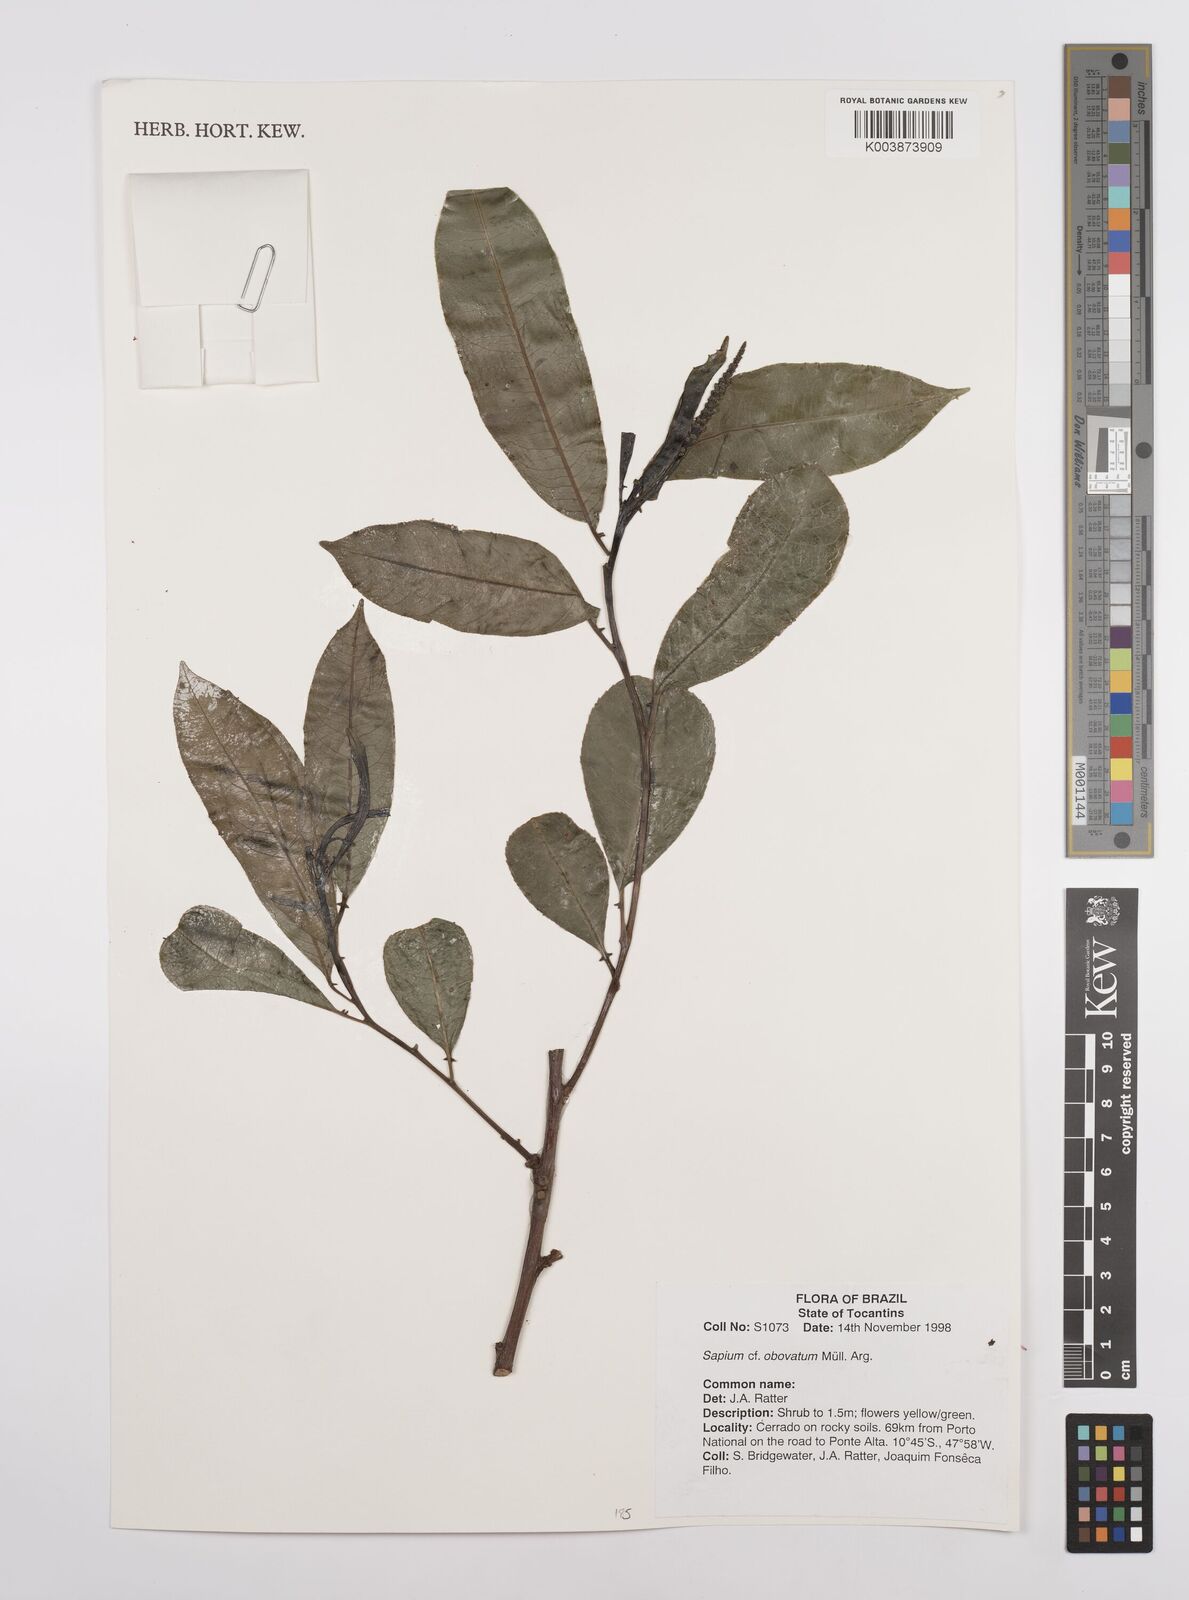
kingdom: Plantae
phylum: Tracheophyta
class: Magnoliopsida
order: Malpighiales
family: Euphorbiaceae
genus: Sapium
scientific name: Sapium obovatum
